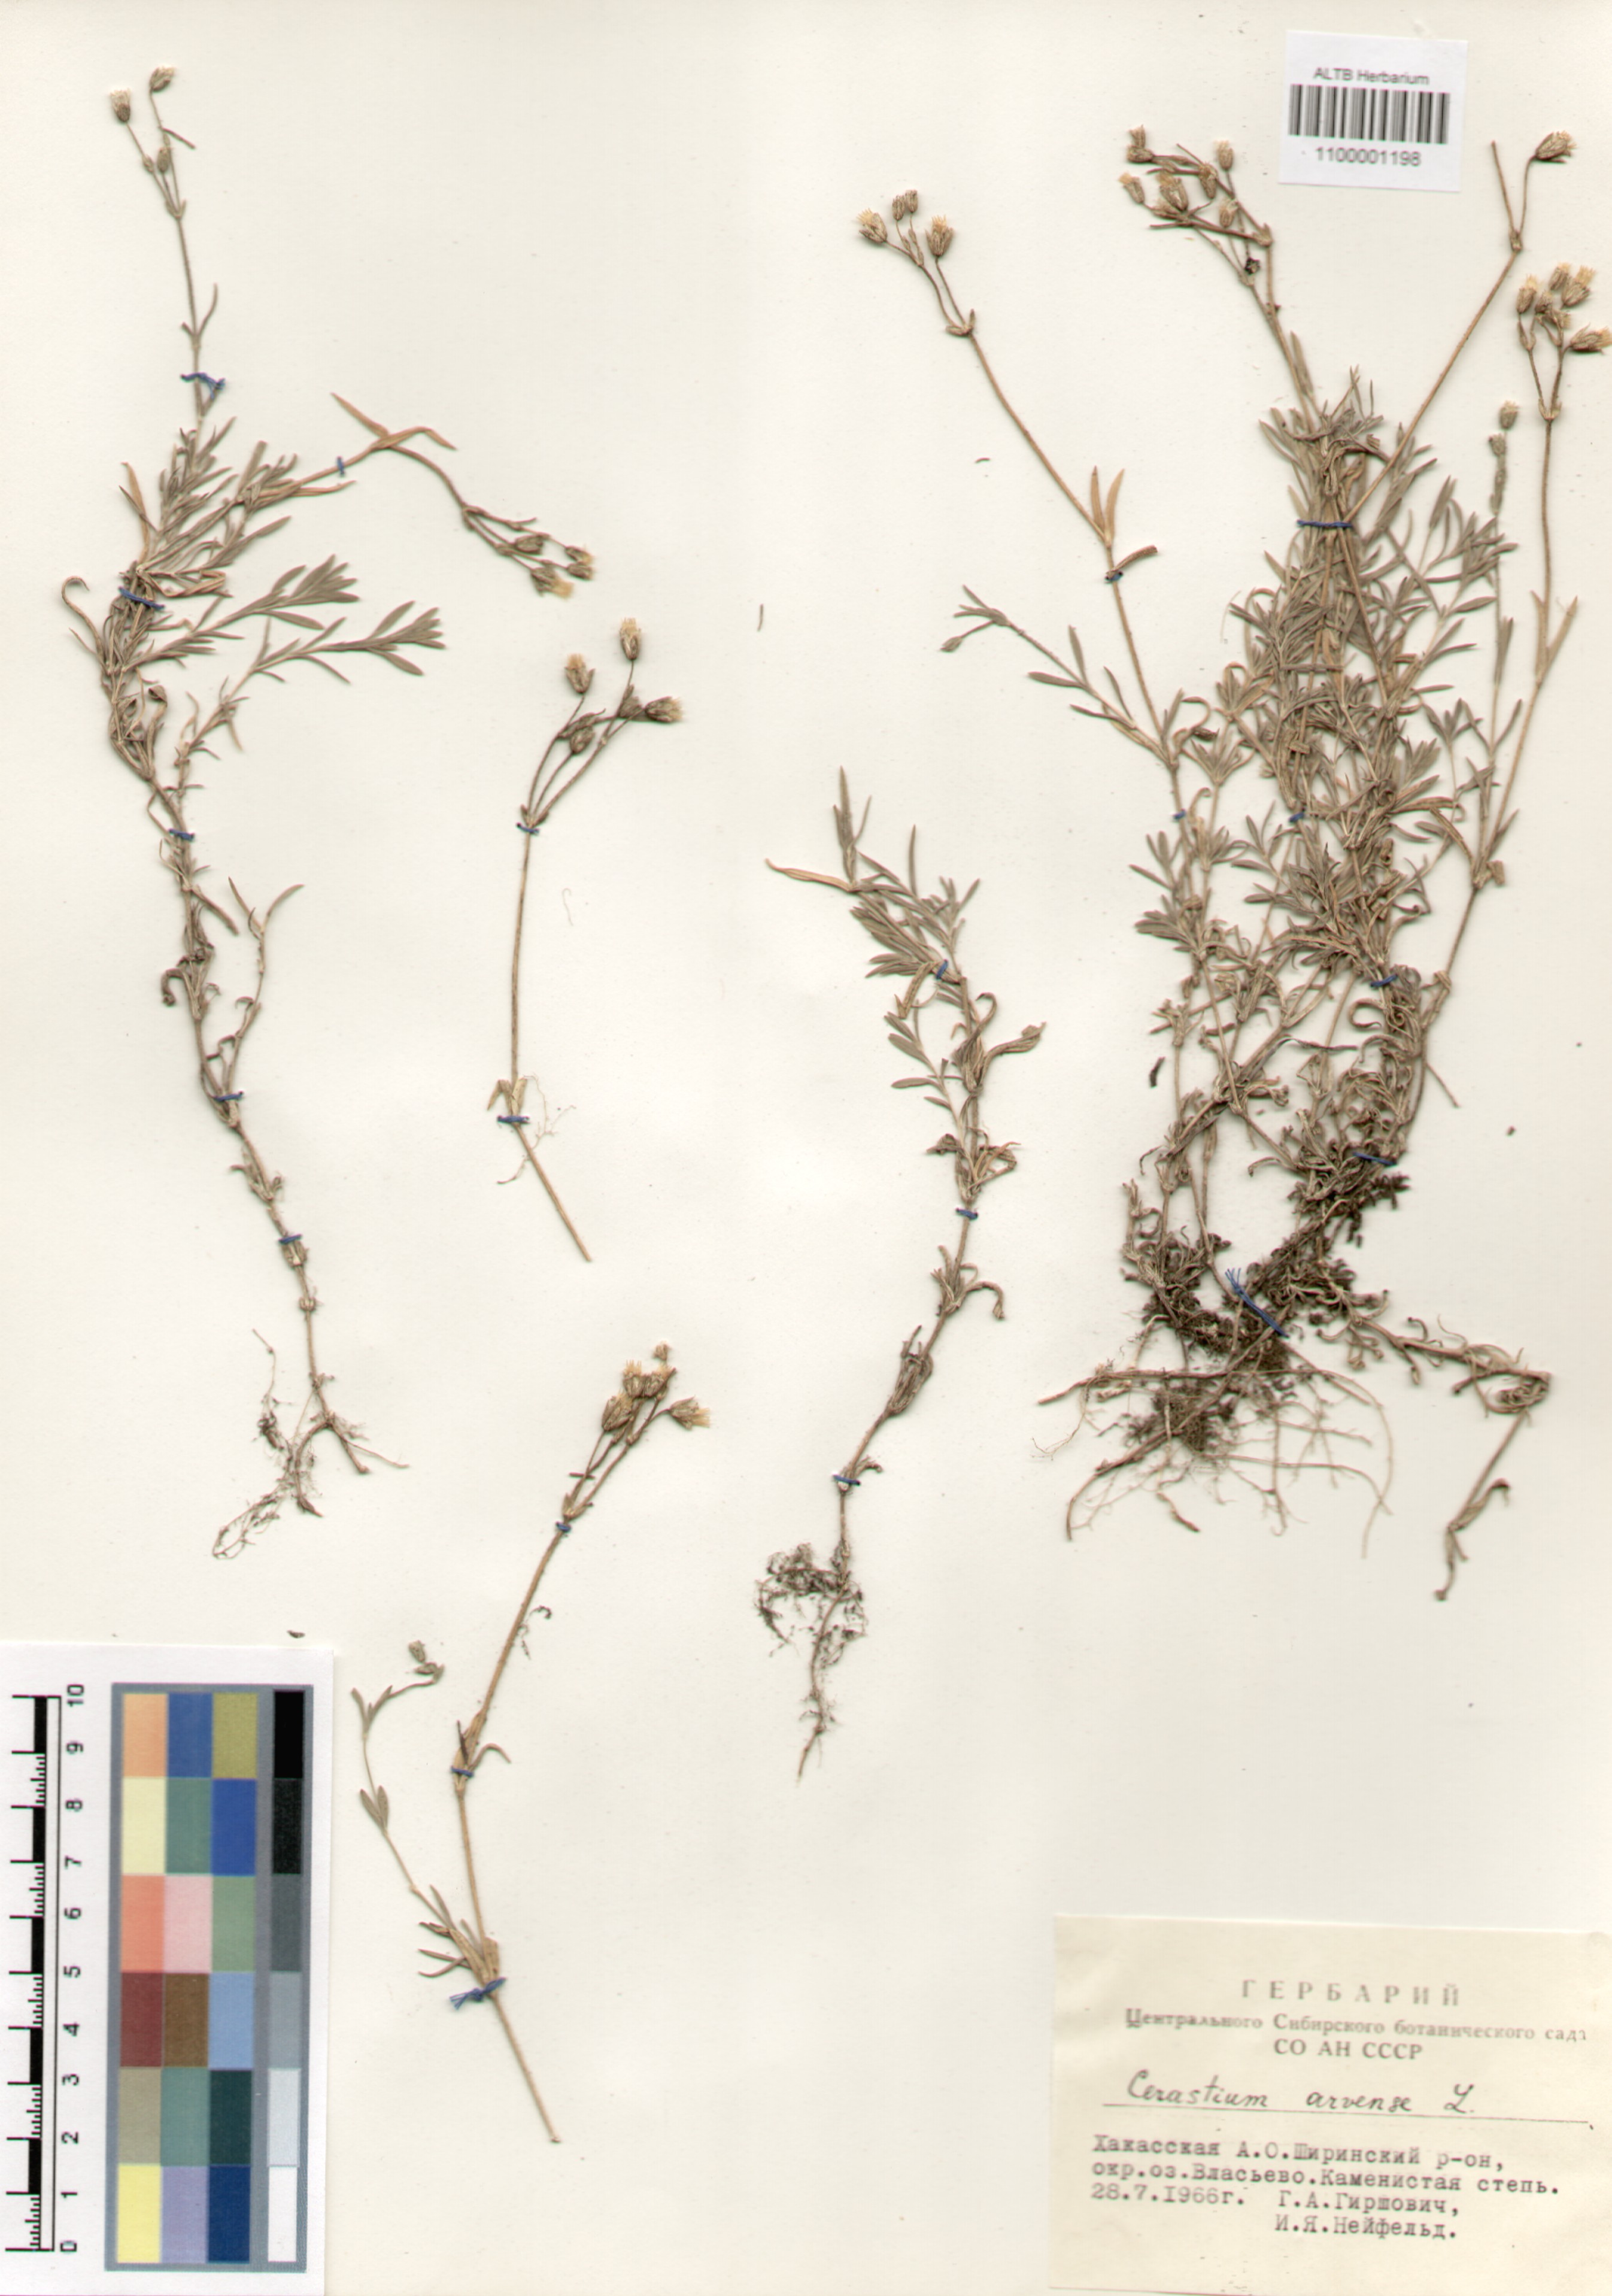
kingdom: Plantae
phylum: Tracheophyta
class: Magnoliopsida
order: Caryophyllales
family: Caryophyllaceae
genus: Cerastium
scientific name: Cerastium arvense
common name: Field mouse-ear
